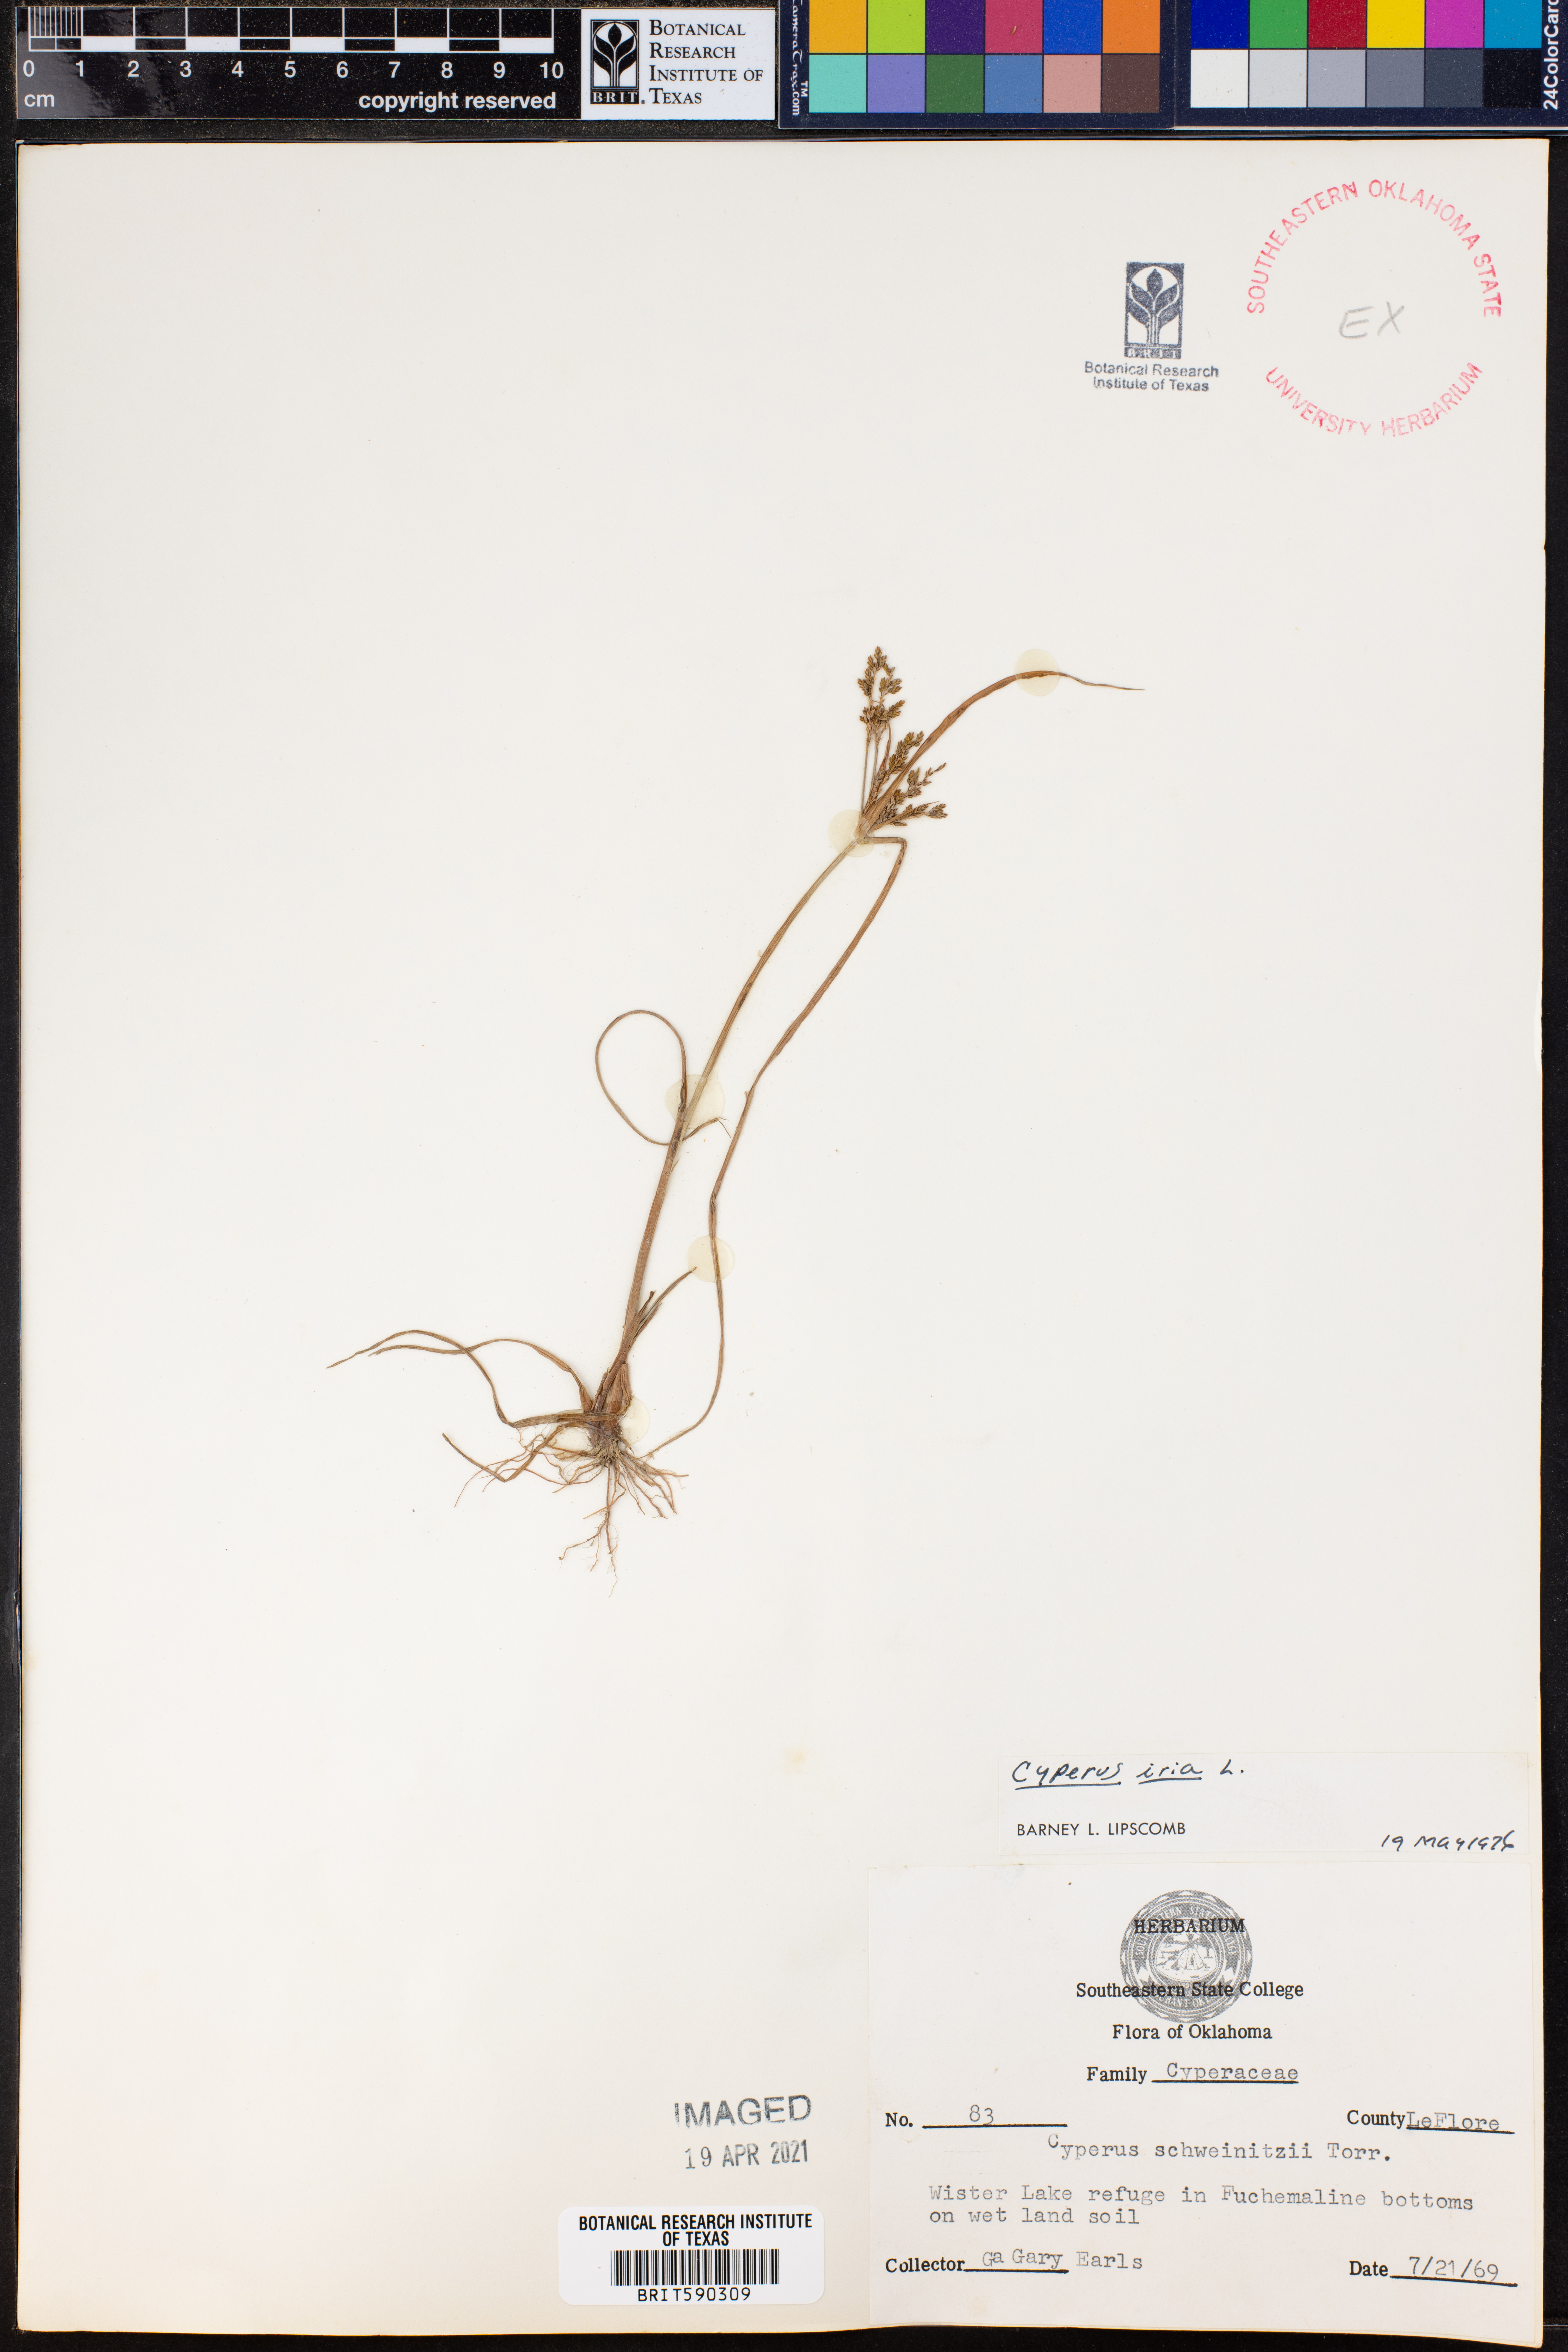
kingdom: Plantae
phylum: Tracheophyta
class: Liliopsida
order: Poales
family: Cyperaceae
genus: Cyperus
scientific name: Cyperus iria
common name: Ricefield flatsedge
